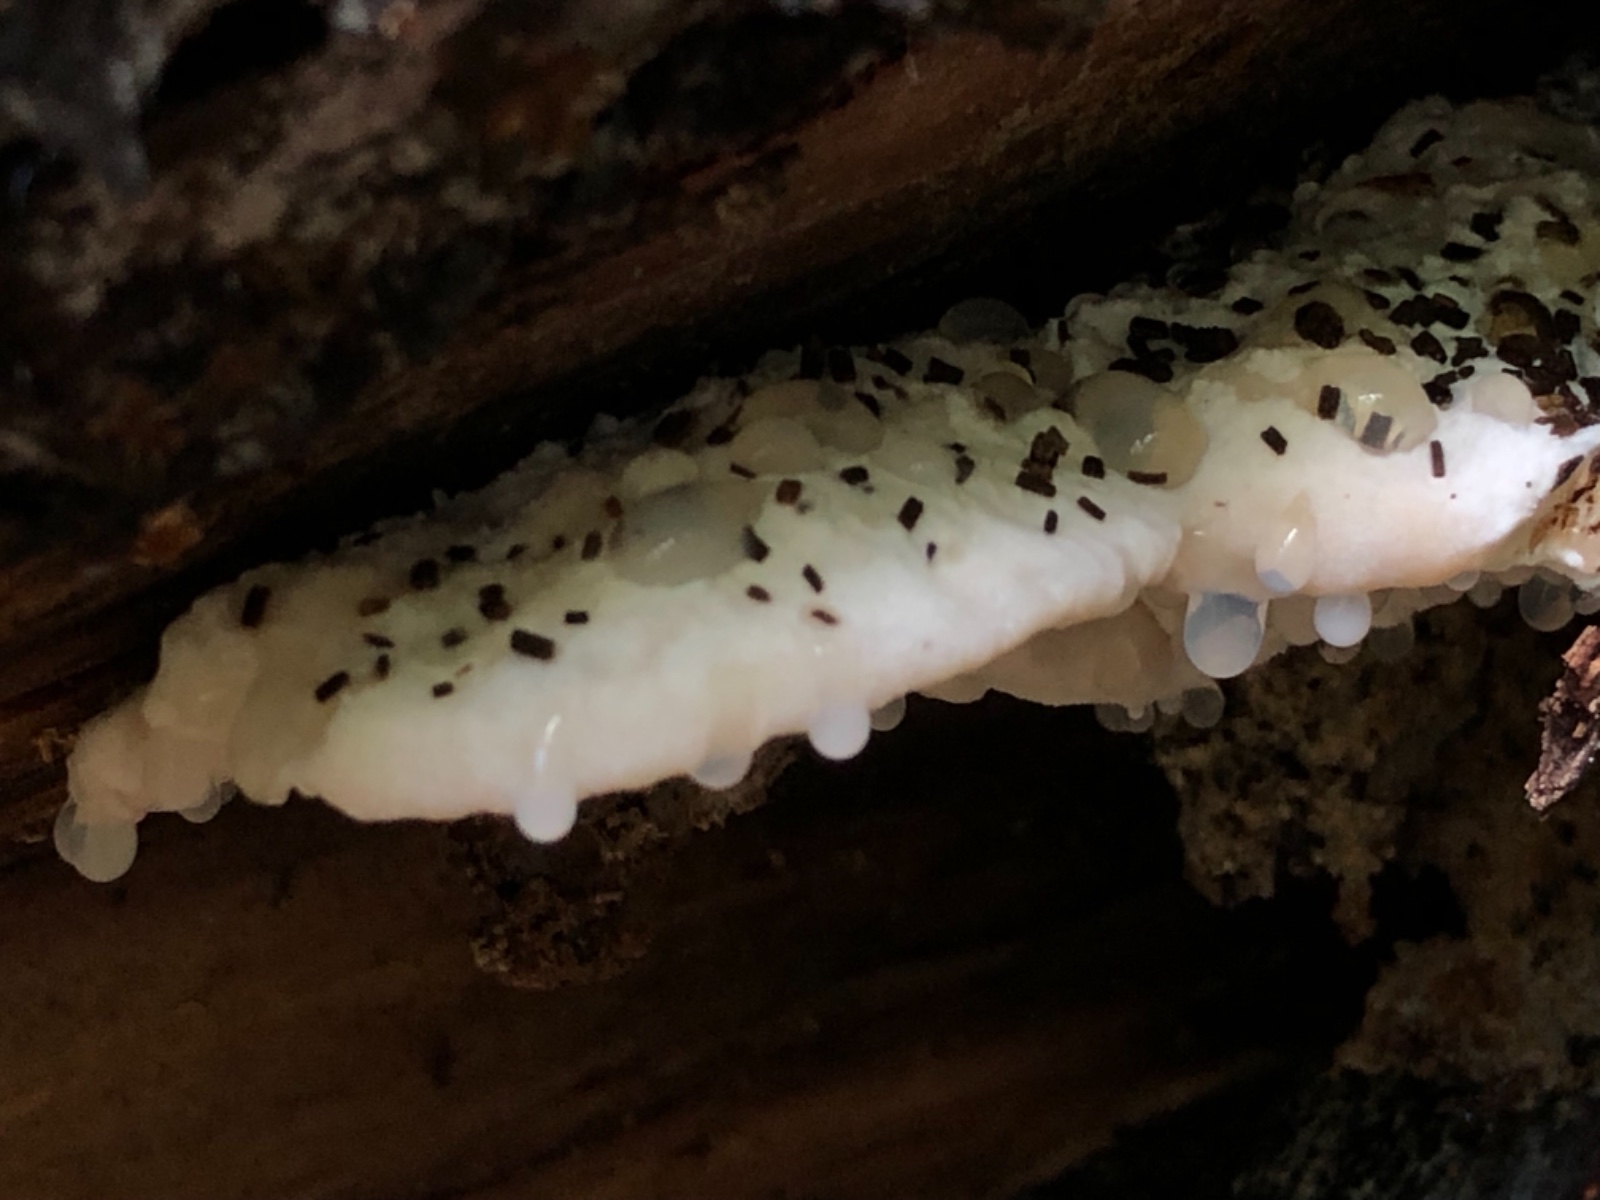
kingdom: Fungi
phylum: Basidiomycota
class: Agaricomycetes
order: Polyporales
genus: Amaropostia
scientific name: Amaropostia stiptica
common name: bitter kødporesvamp
